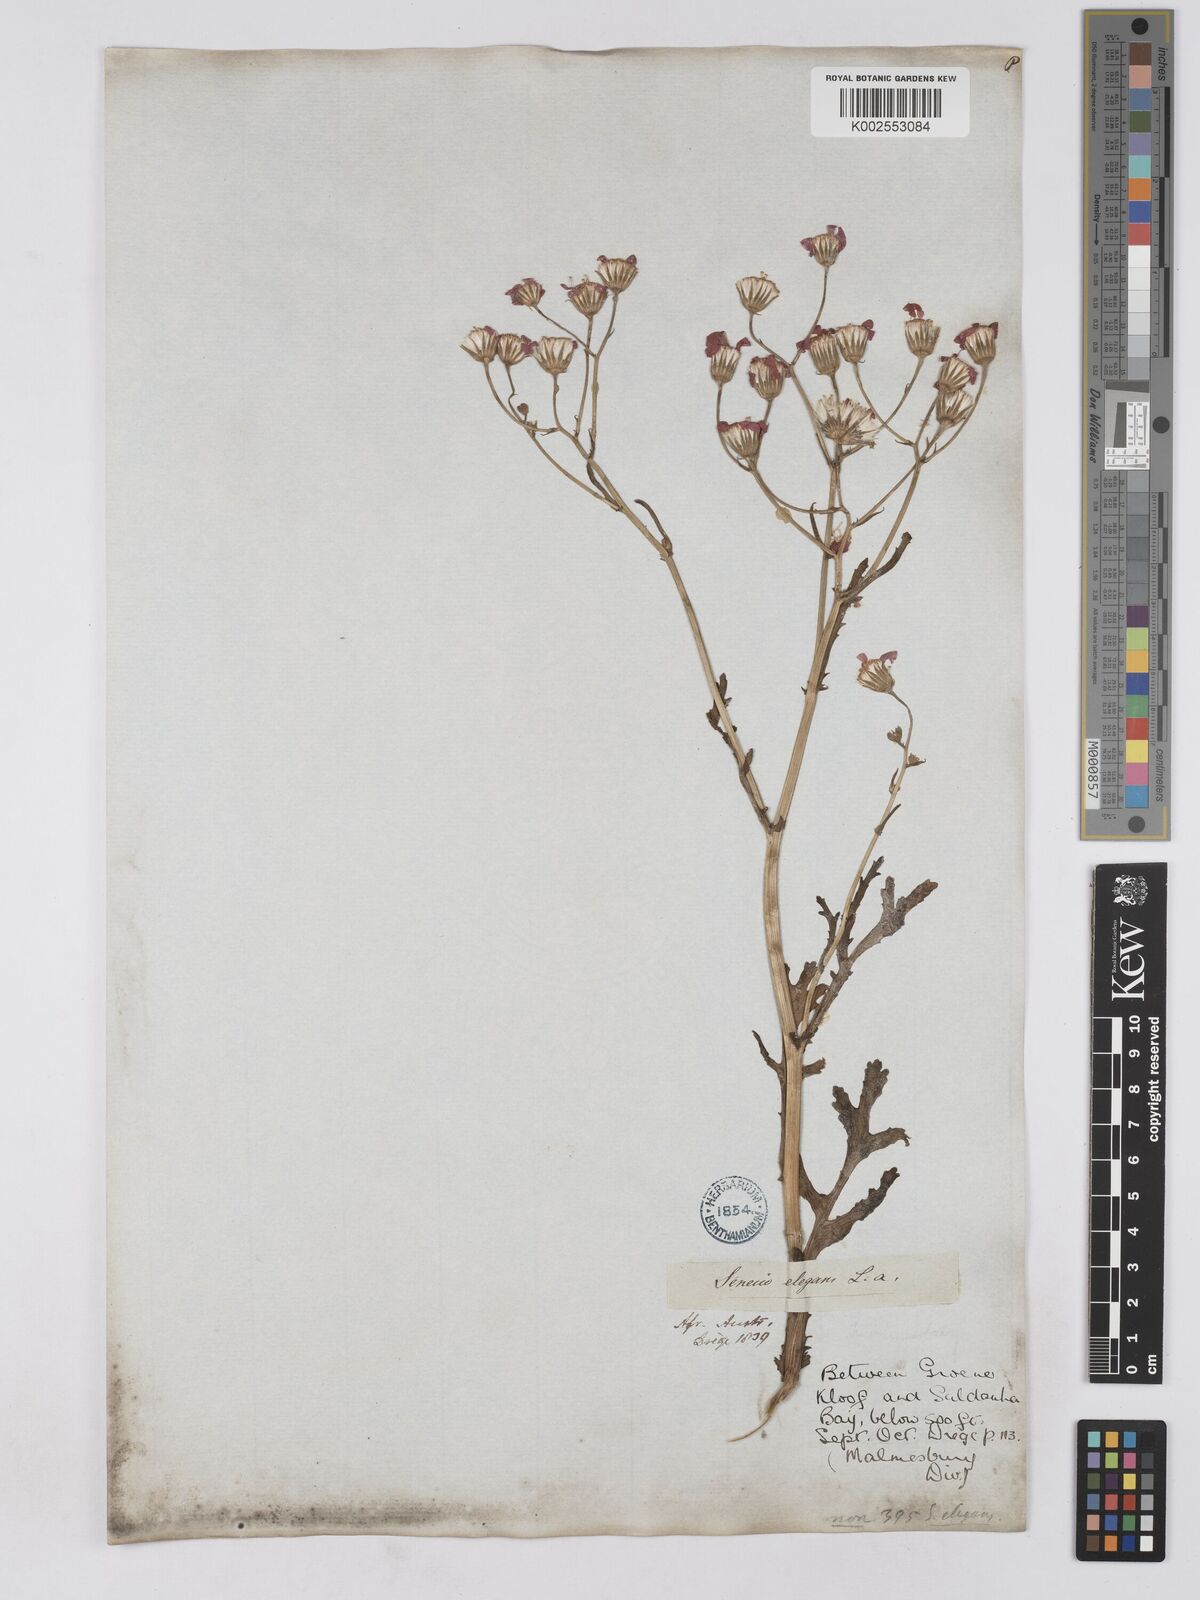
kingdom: Plantae
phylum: Tracheophyta
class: Magnoliopsida
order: Asterales
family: Asteraceae
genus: Senecio
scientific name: Senecio arenarius
